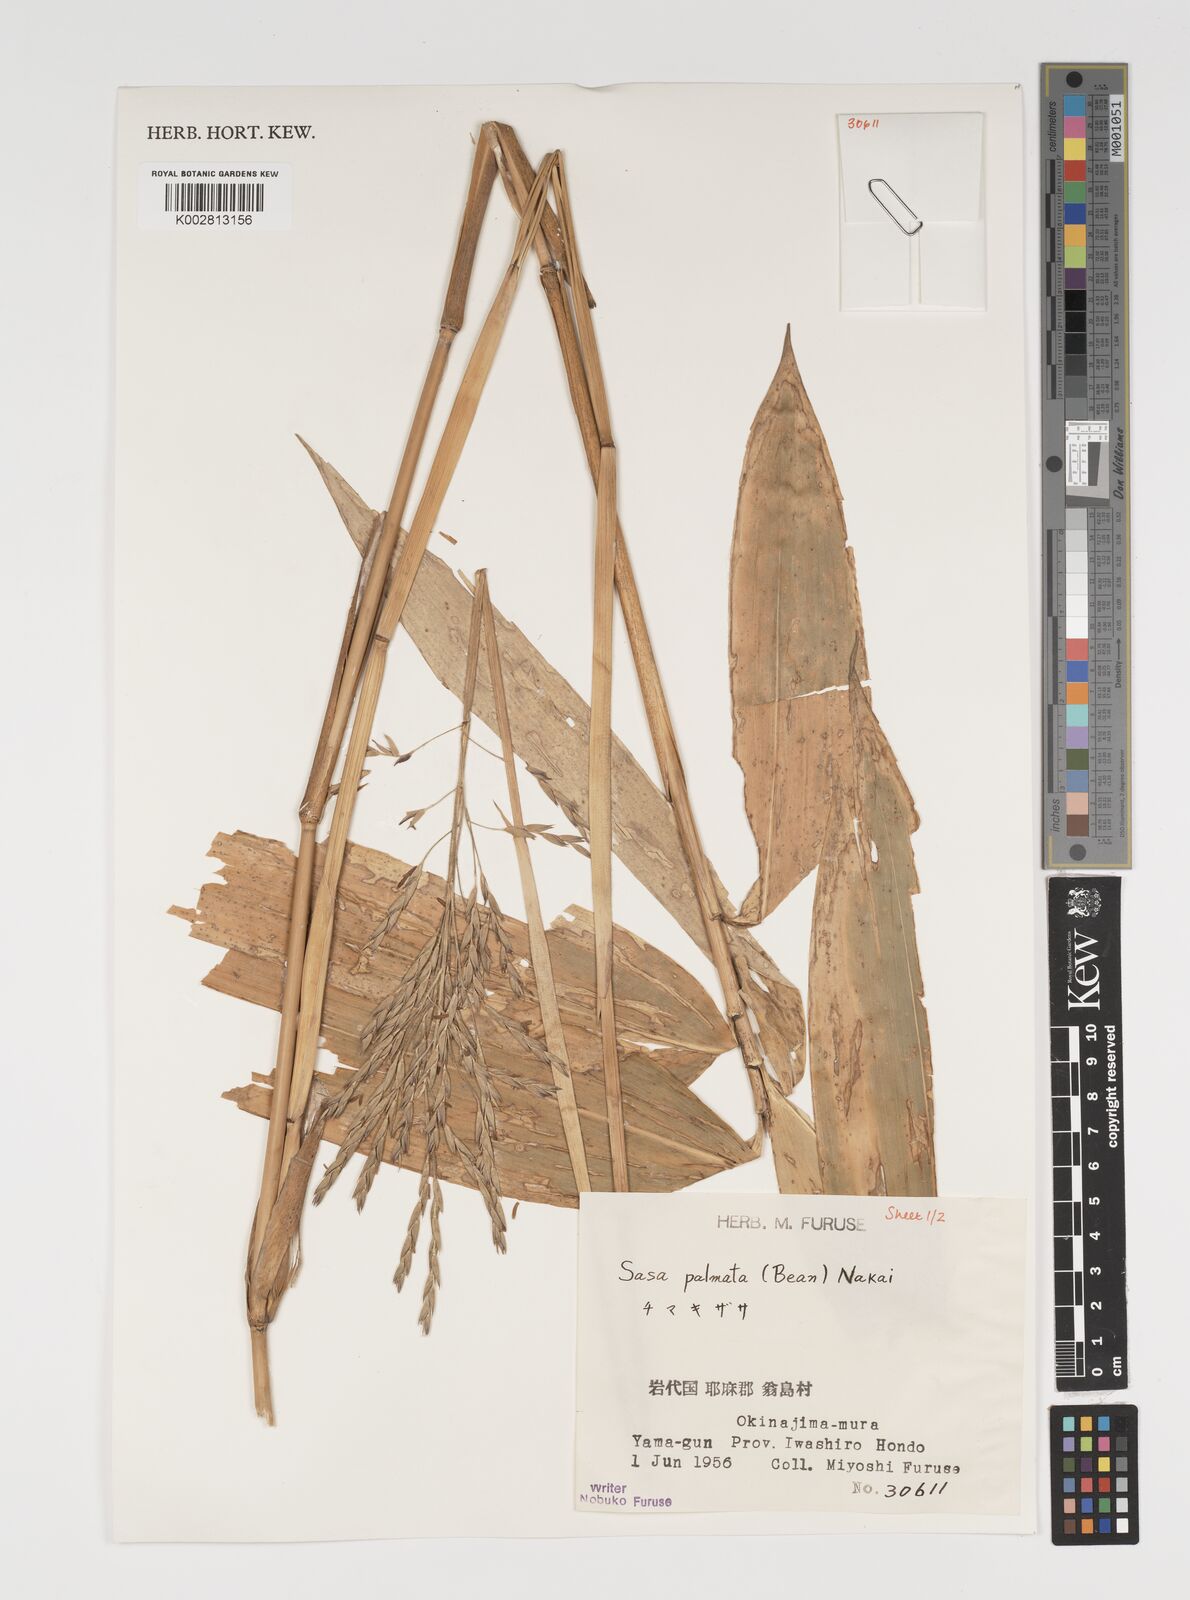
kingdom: Plantae
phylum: Tracheophyta
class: Liliopsida
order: Poales
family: Poaceae
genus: Sasa
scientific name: Sasa palmata
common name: Broad-leaved bamboo
